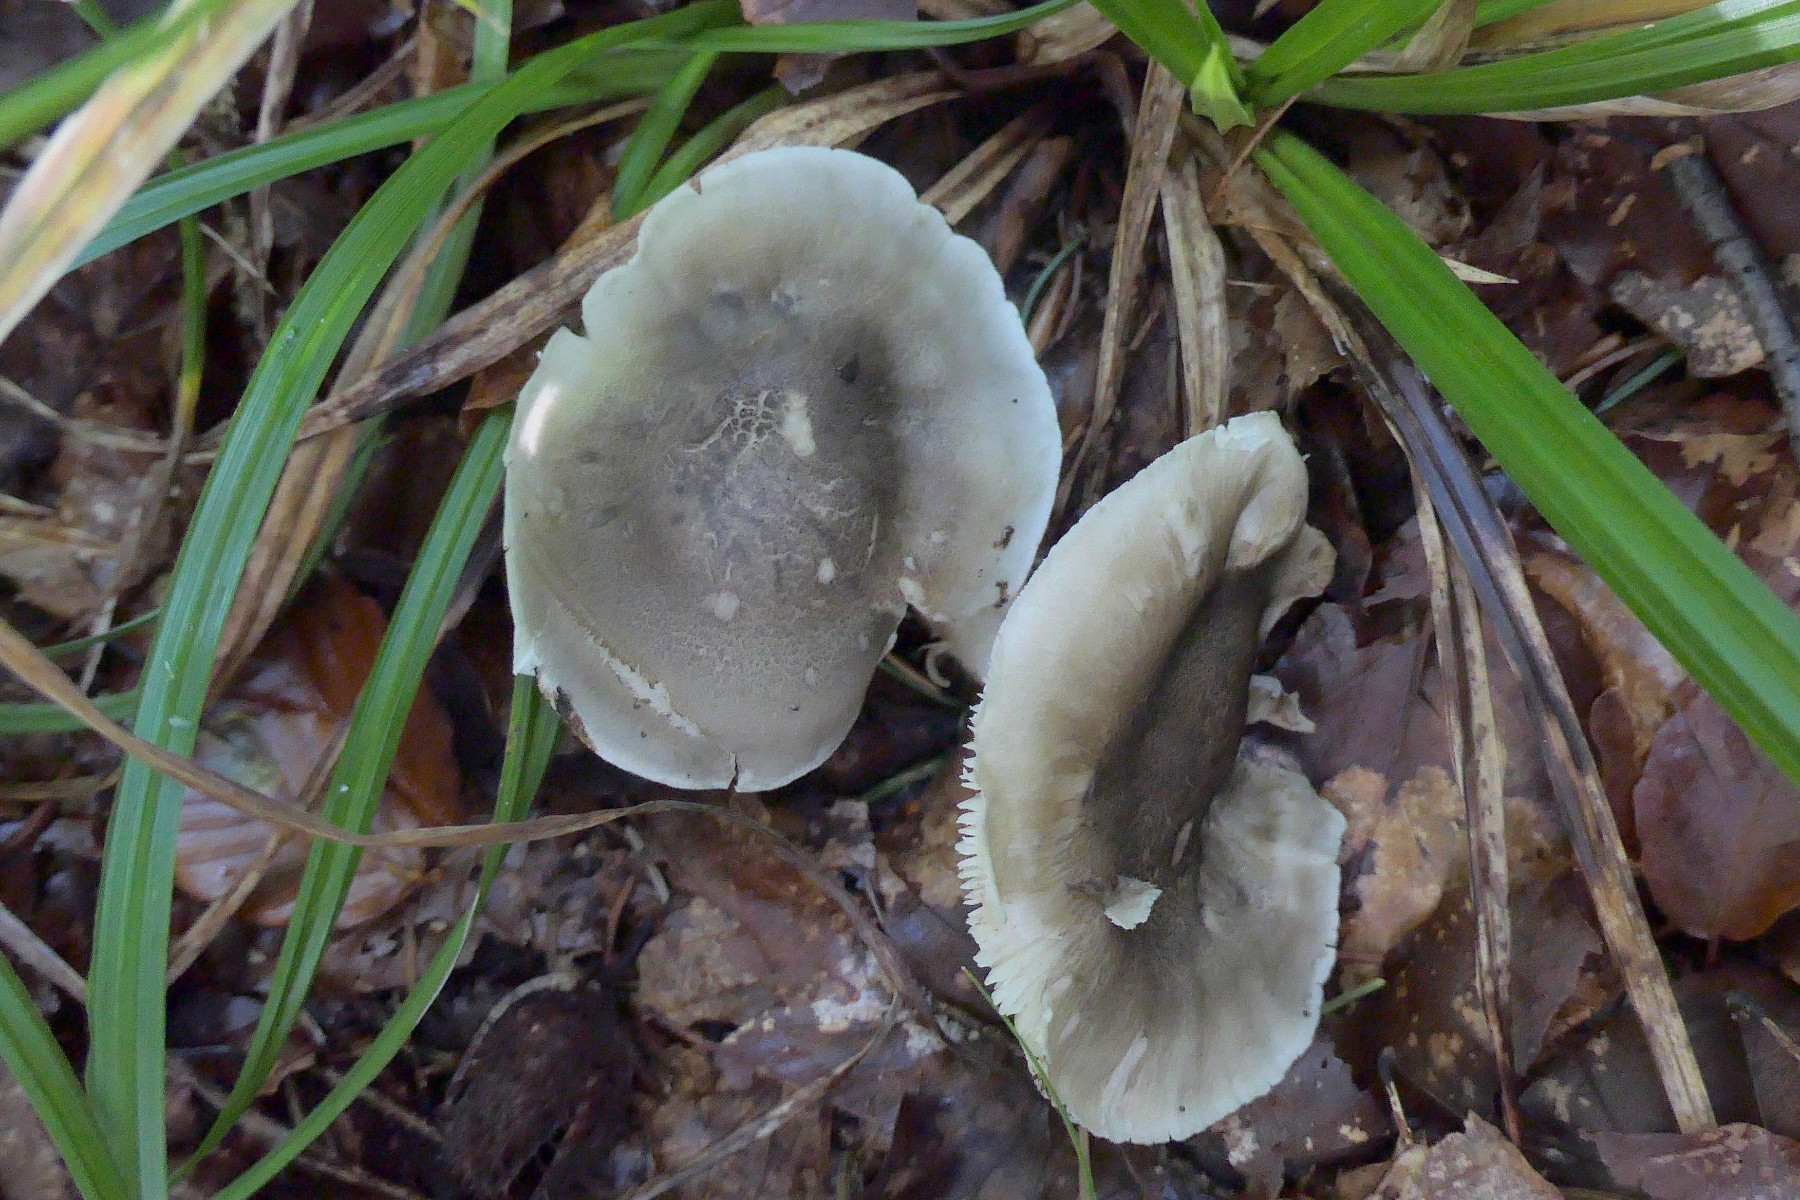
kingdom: Fungi
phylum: Basidiomycota
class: Agaricomycetes
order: Agaricales
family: Tricholomataceae
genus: Tricholoma
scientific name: Tricholoma saponaceum
